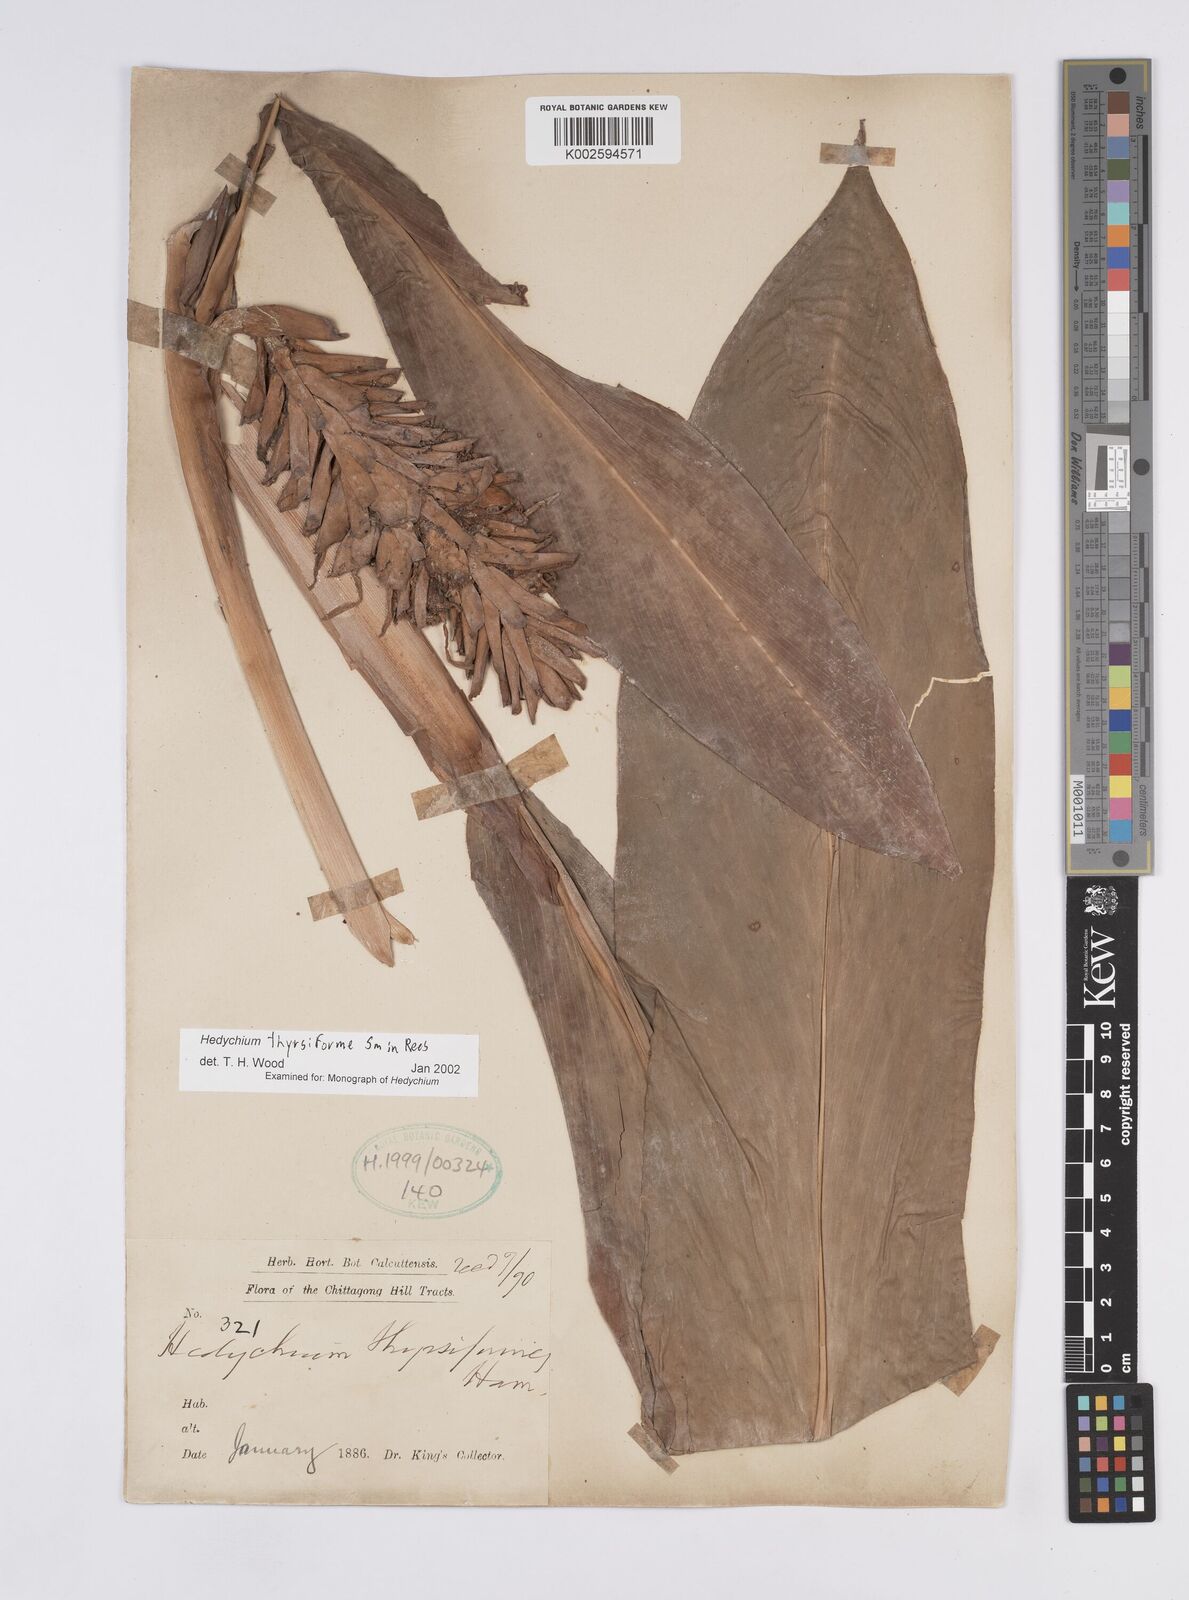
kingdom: Plantae
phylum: Tracheophyta
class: Liliopsida
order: Zingiberales
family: Zingiberaceae
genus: Hedychium
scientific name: Hedychium thyrsiforme
